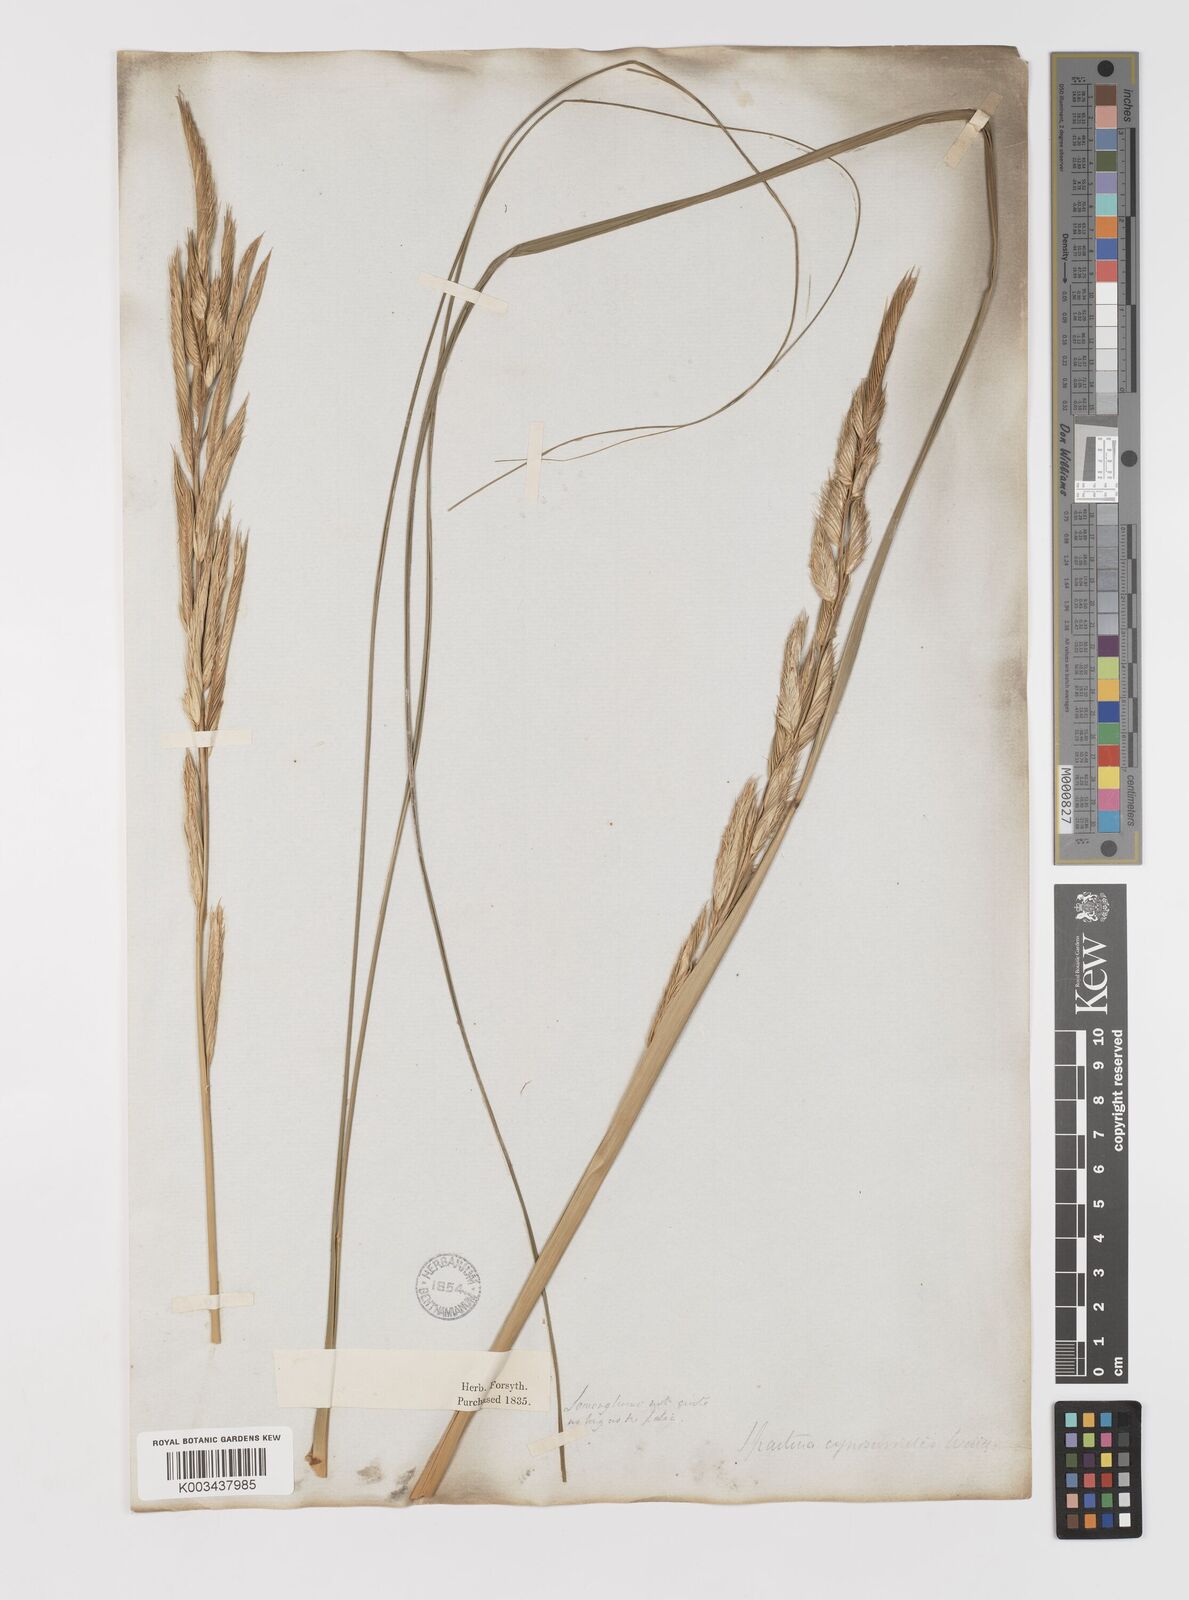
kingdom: Plantae
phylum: Tracheophyta
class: Liliopsida
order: Poales
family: Poaceae
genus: Sporobolus
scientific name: Sporobolus michauxianus
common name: Freshwater cordgrass
